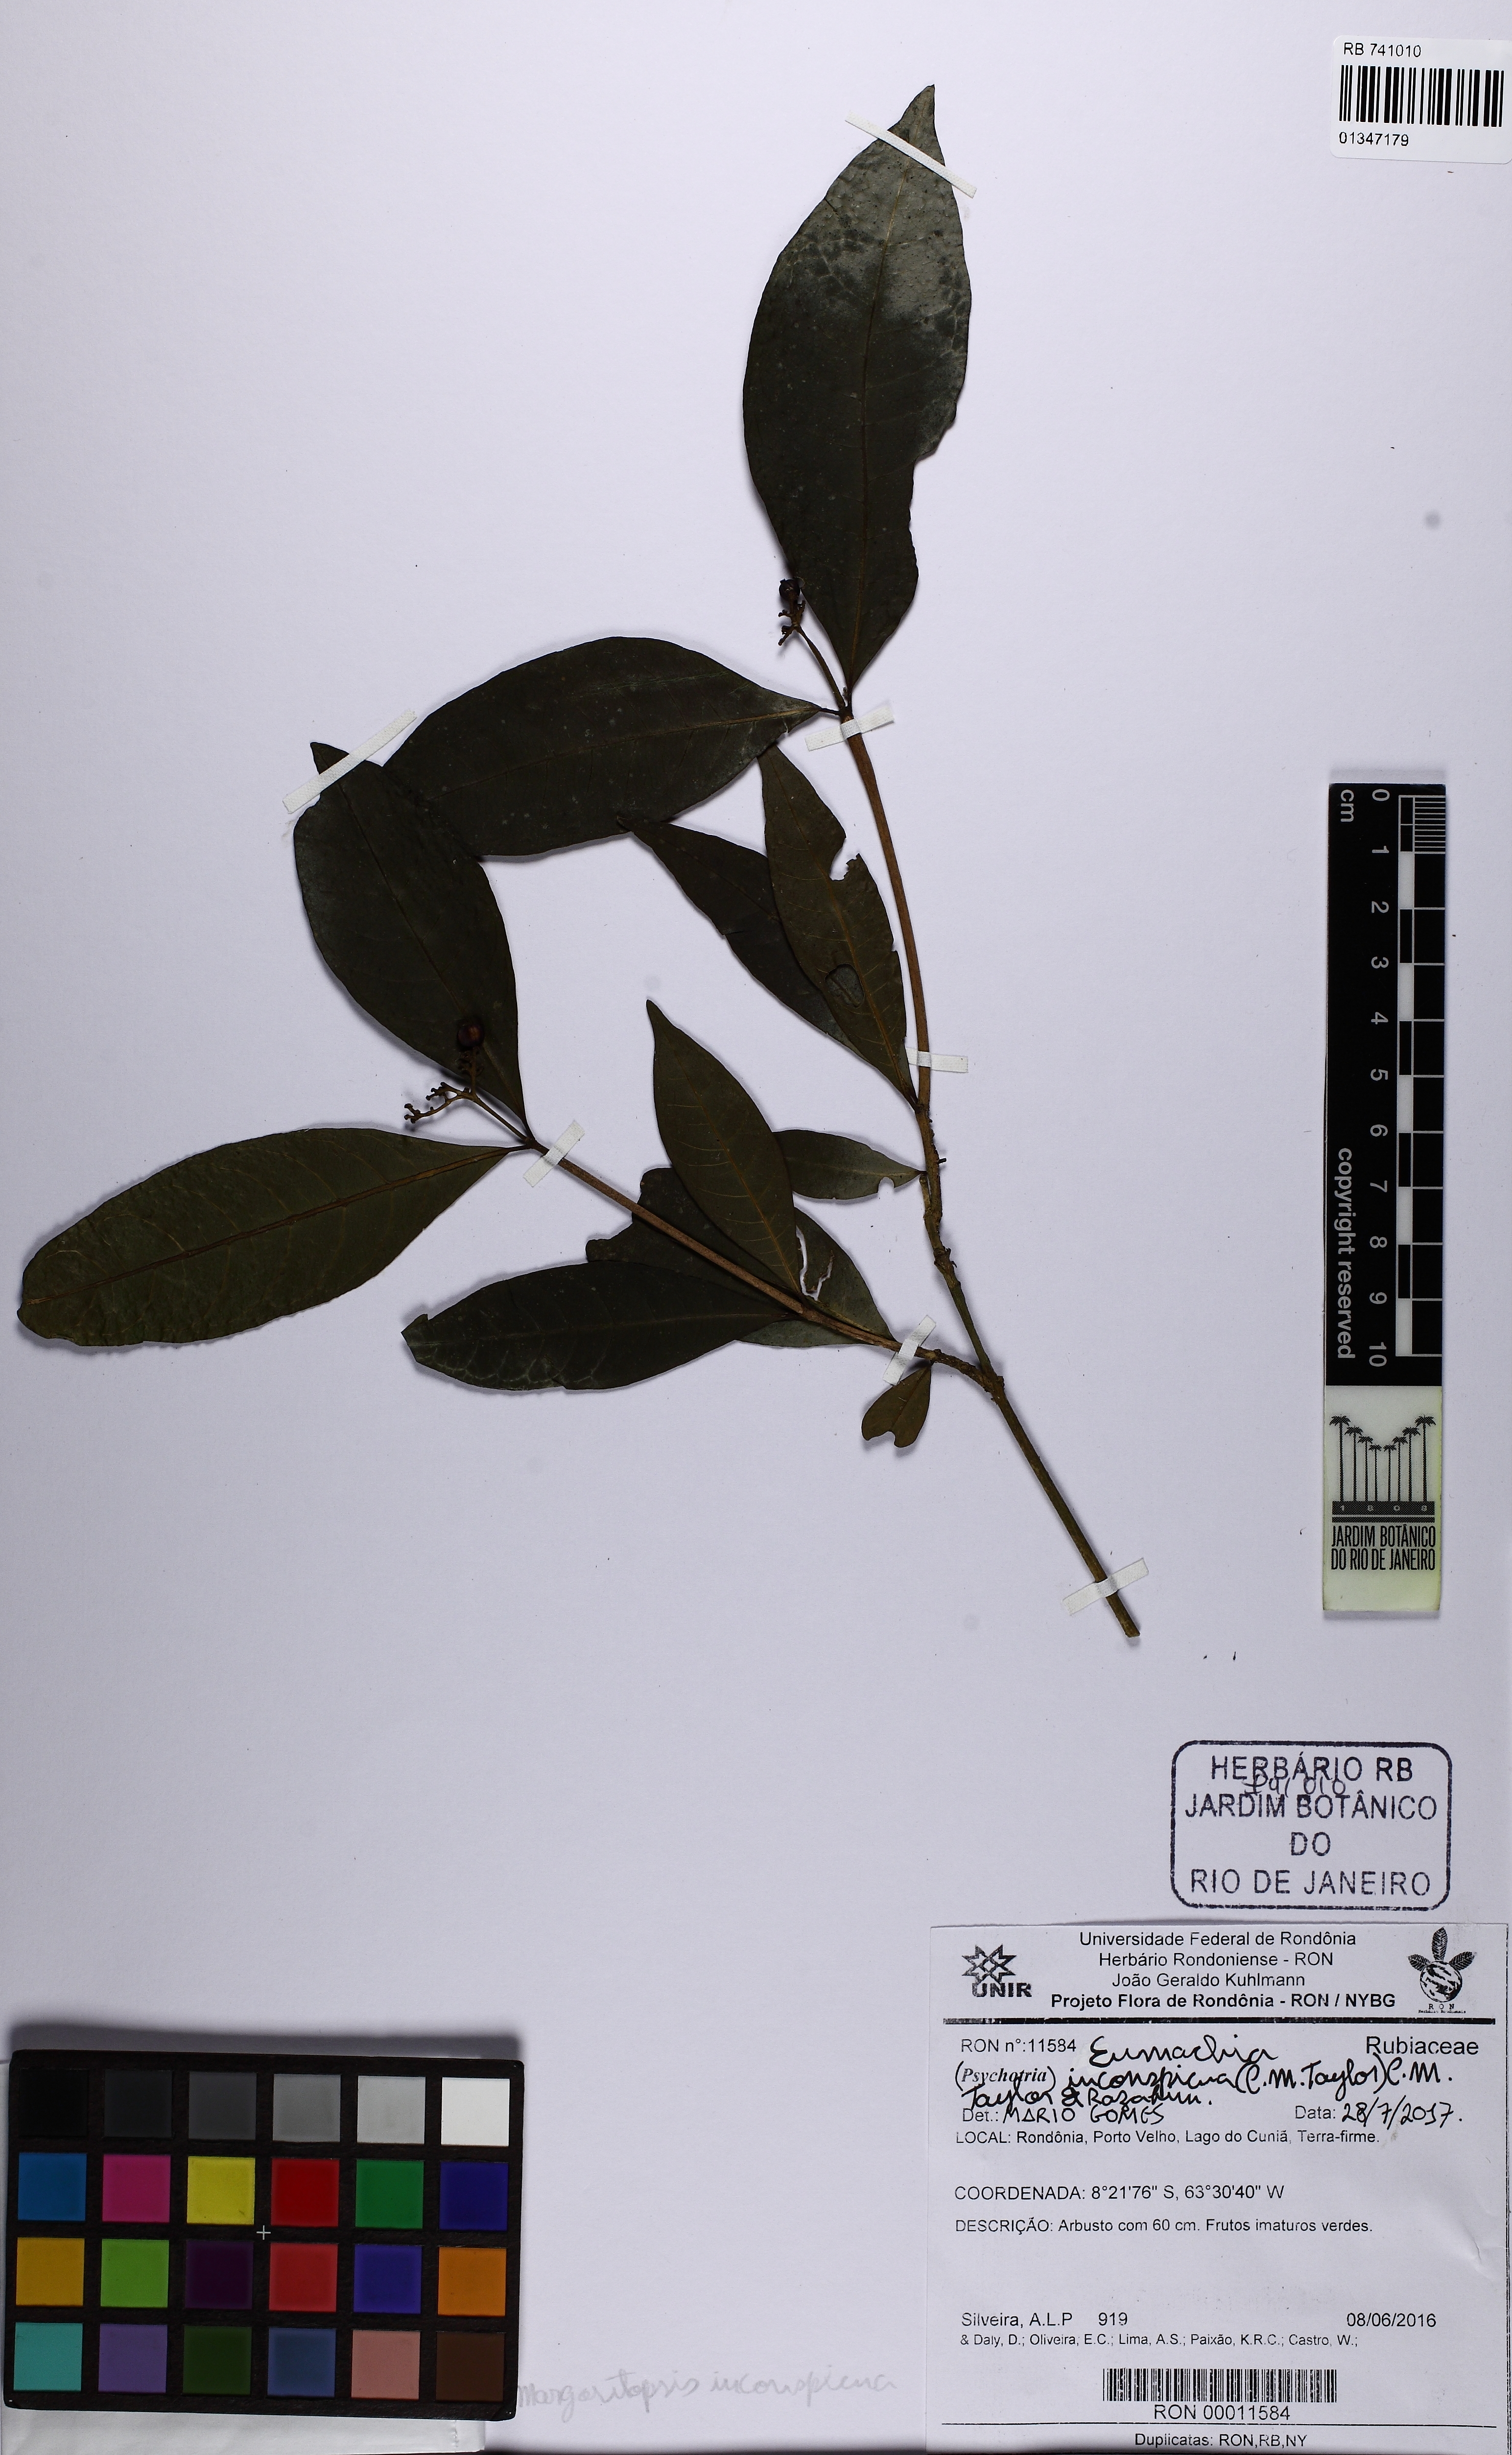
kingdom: Plantae
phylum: Tracheophyta
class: Magnoliopsida
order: Gentianales
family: Rubiaceae
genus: Eumachia
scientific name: Eumachia inconspicua
